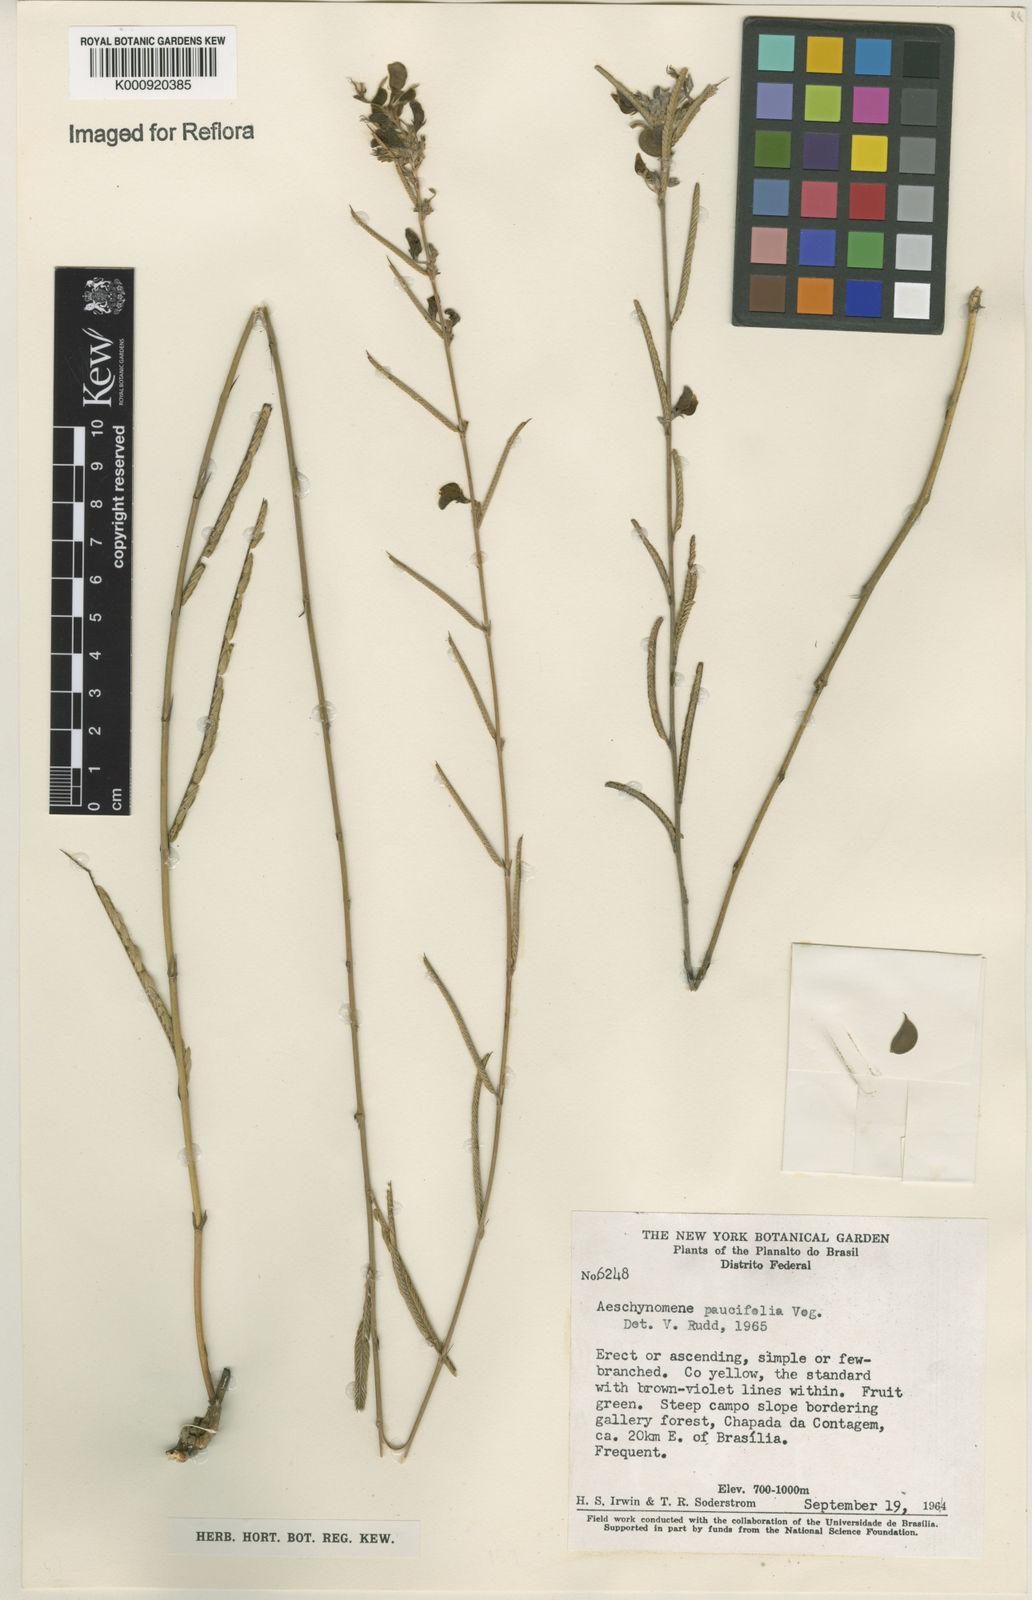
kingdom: Plantae
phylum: Tracheophyta
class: Magnoliopsida
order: Fabales
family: Fabaceae
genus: Ctenodon
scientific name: Ctenodon paucifolius
